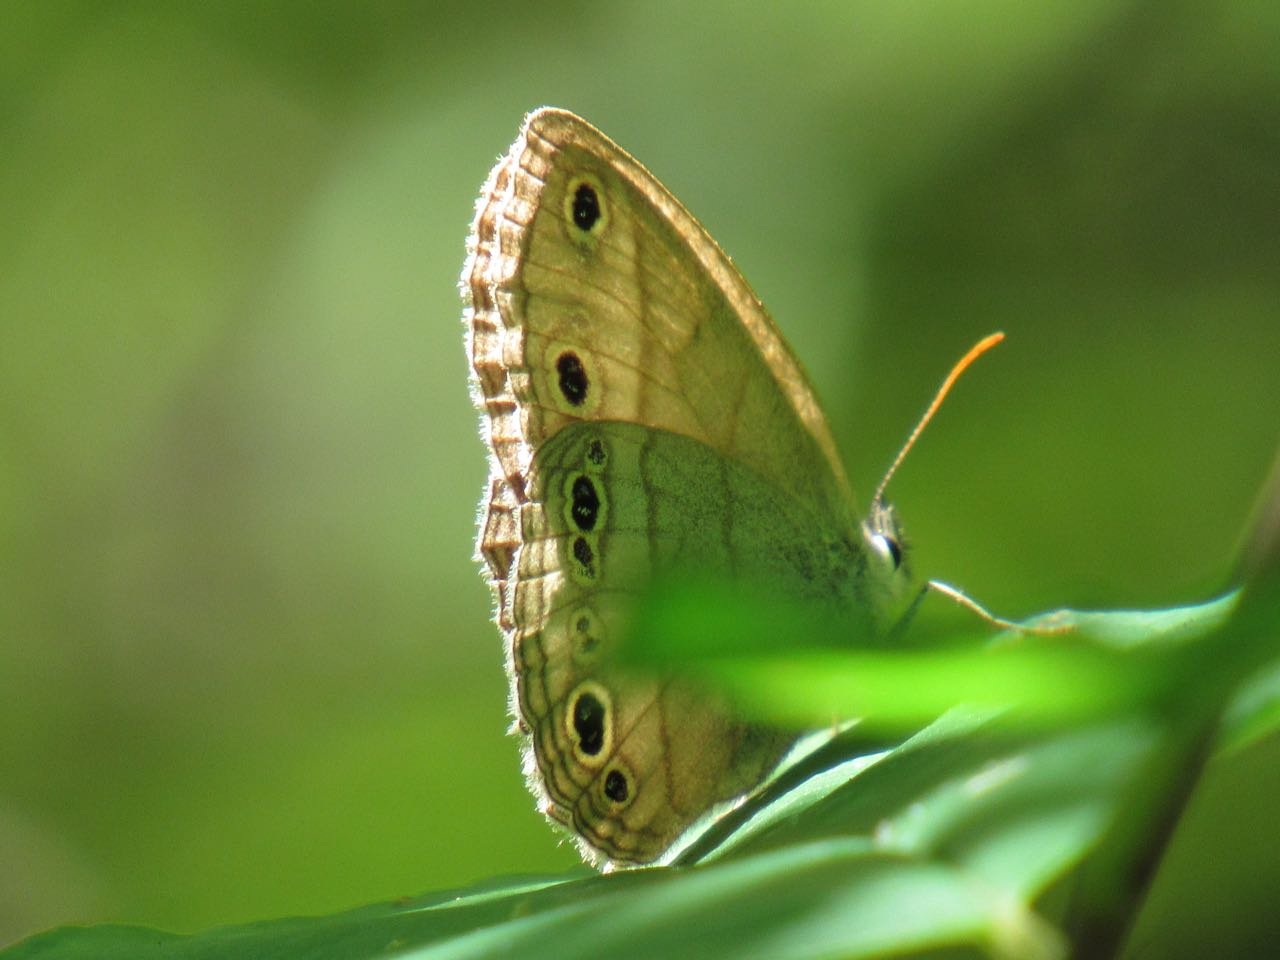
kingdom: Animalia
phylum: Arthropoda
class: Insecta
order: Lepidoptera
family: Nymphalidae
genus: Euptychia
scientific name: Euptychia cymela
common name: Little Wood Satyr
